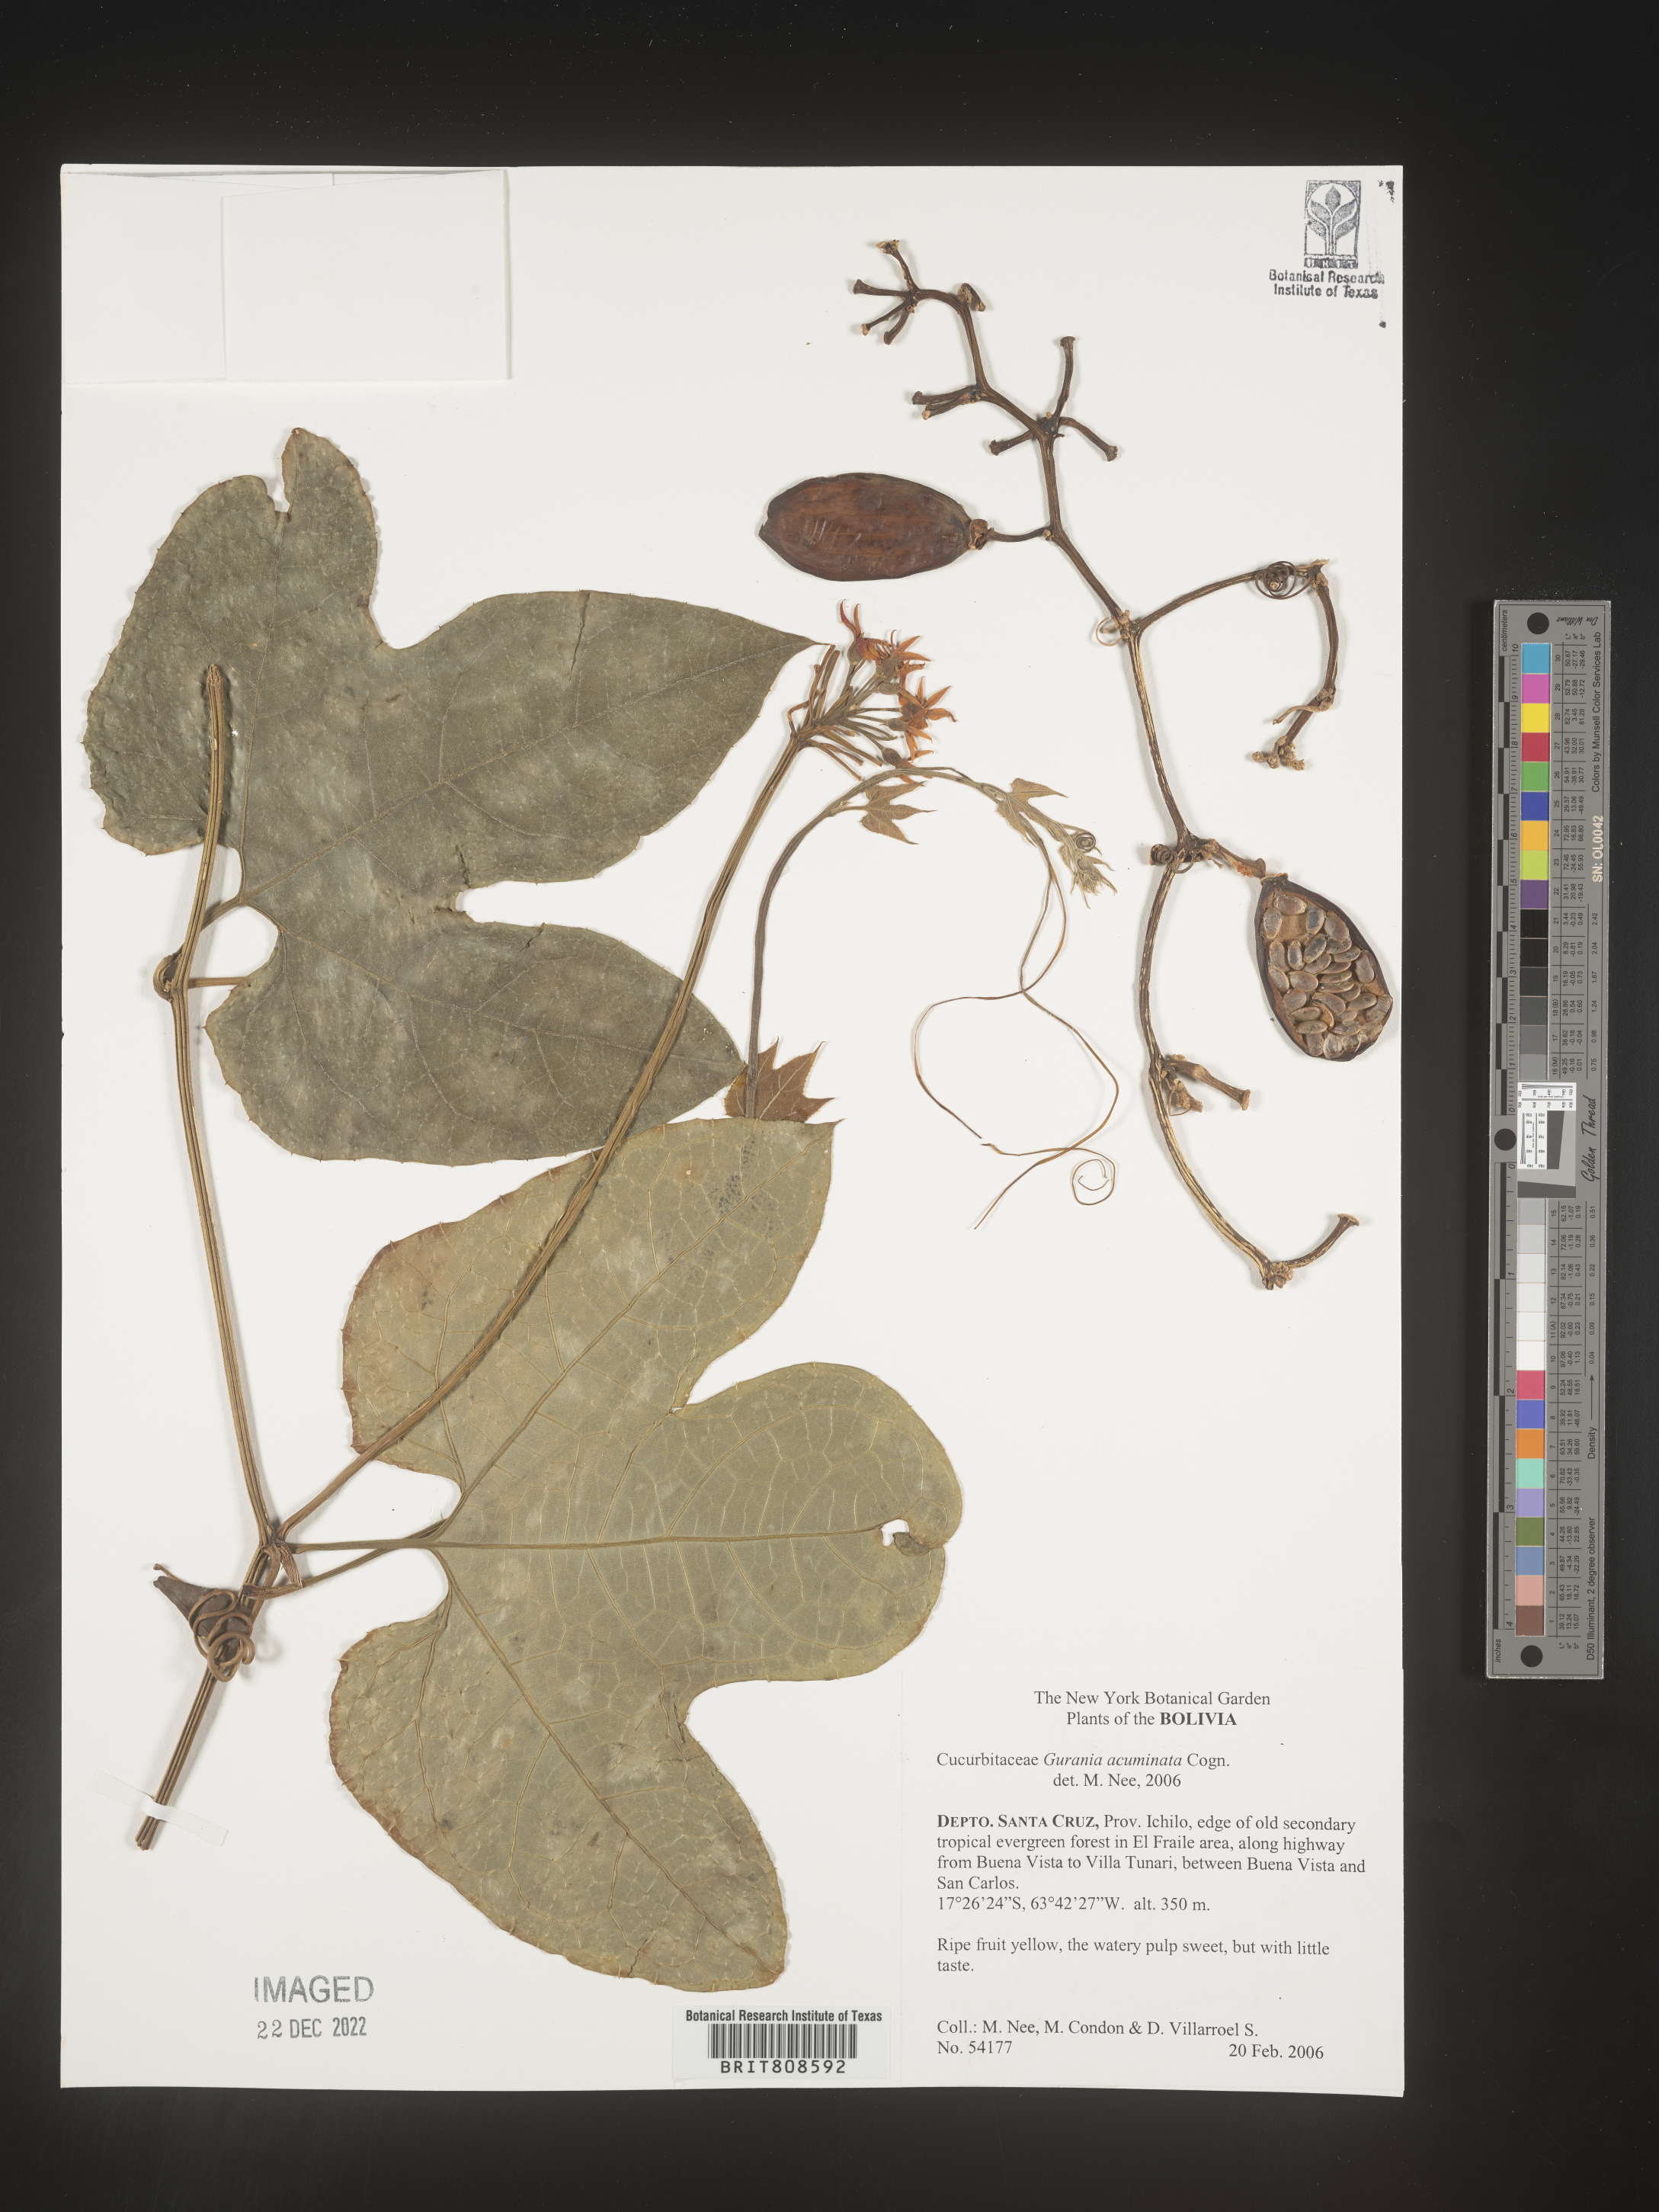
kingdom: Plantae
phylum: Tracheophyta
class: Magnoliopsida
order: Cucurbitales
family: Cucurbitaceae
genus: Gurania
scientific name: Gurania
